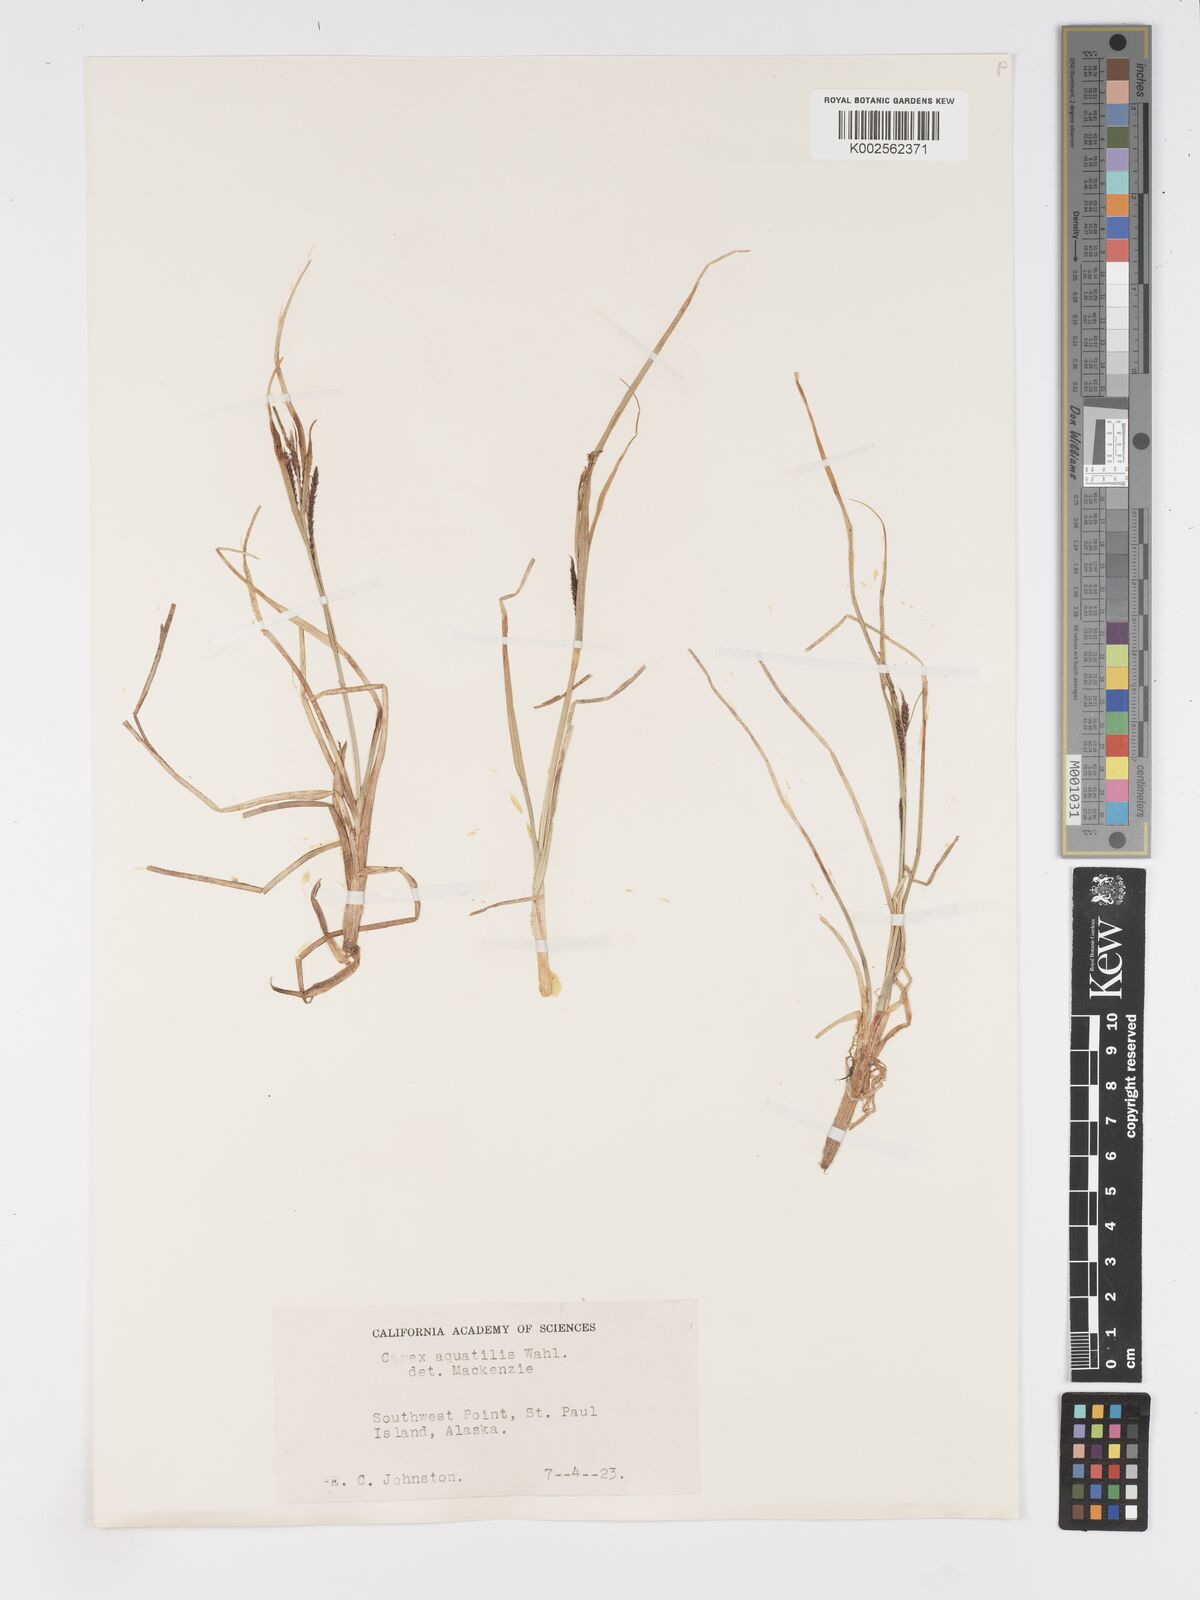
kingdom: Plantae
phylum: Tracheophyta
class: Liliopsida
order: Poales
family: Cyperaceae
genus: Carex
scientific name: Carex aquatilis
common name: Water sedge
